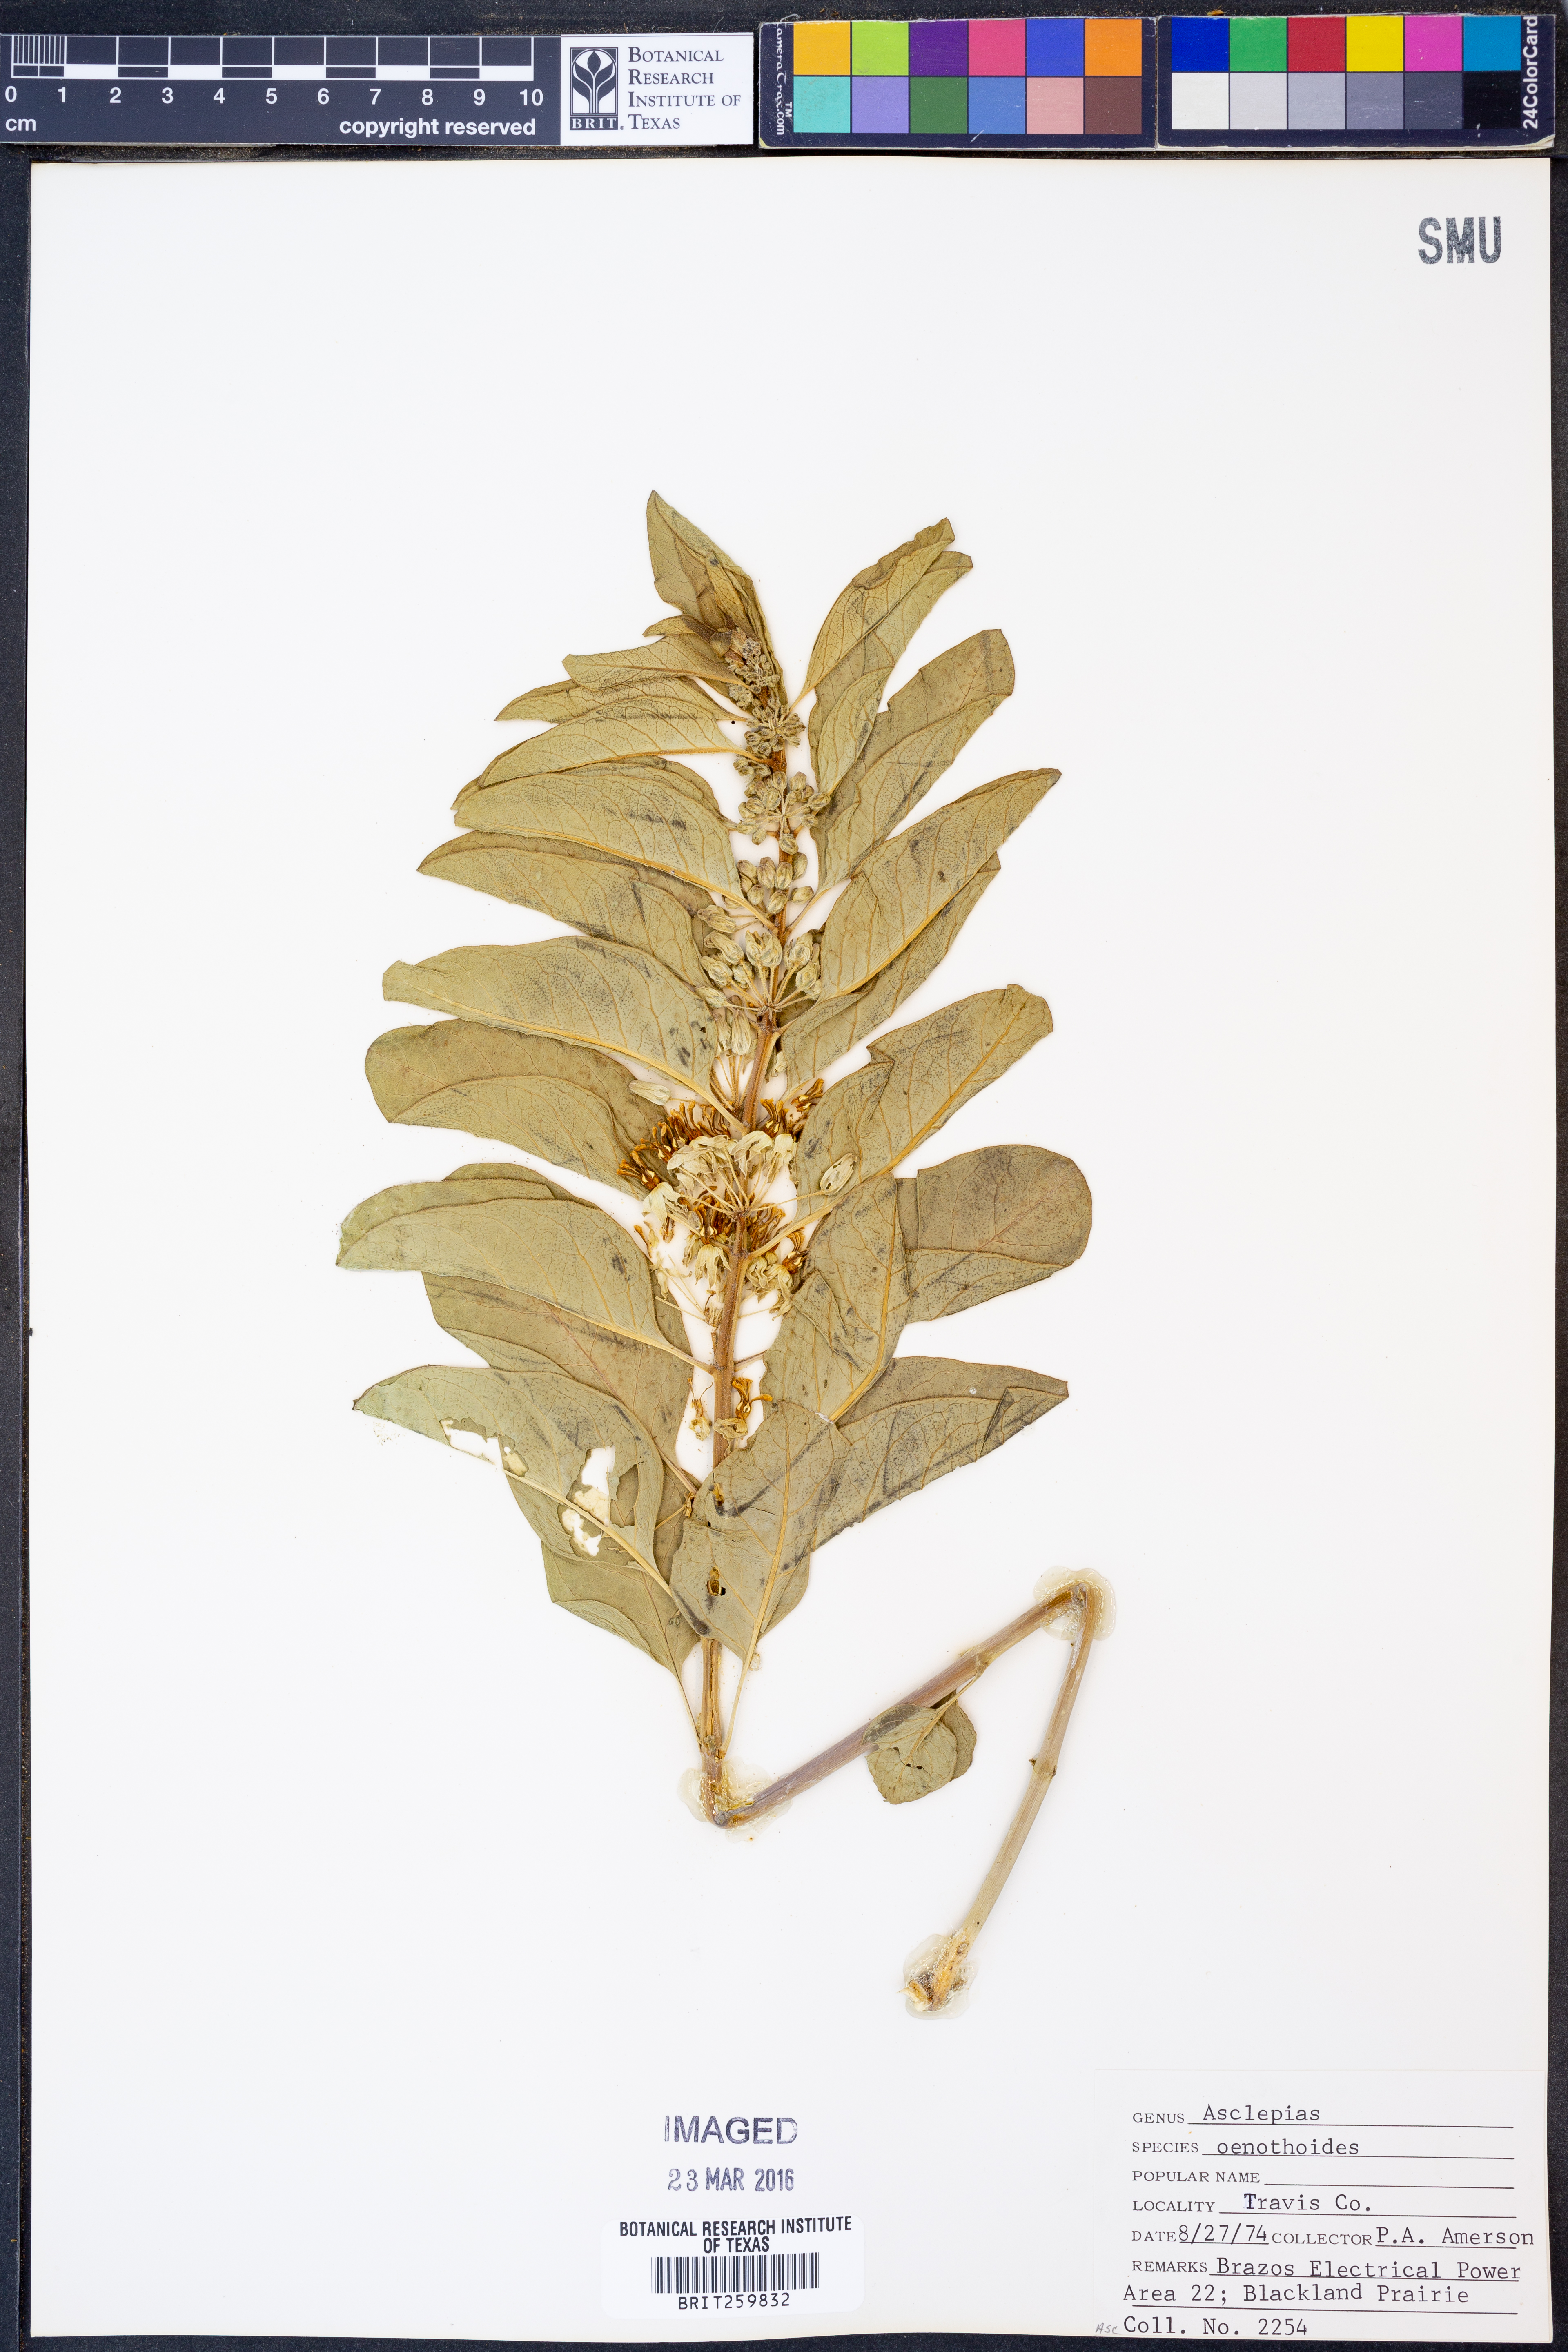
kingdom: Plantae
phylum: Tracheophyta
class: Magnoliopsida
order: Gentianales
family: Apocynaceae
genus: Asclepias
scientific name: Asclepias oenotheroides
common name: Zizotes milkweed
